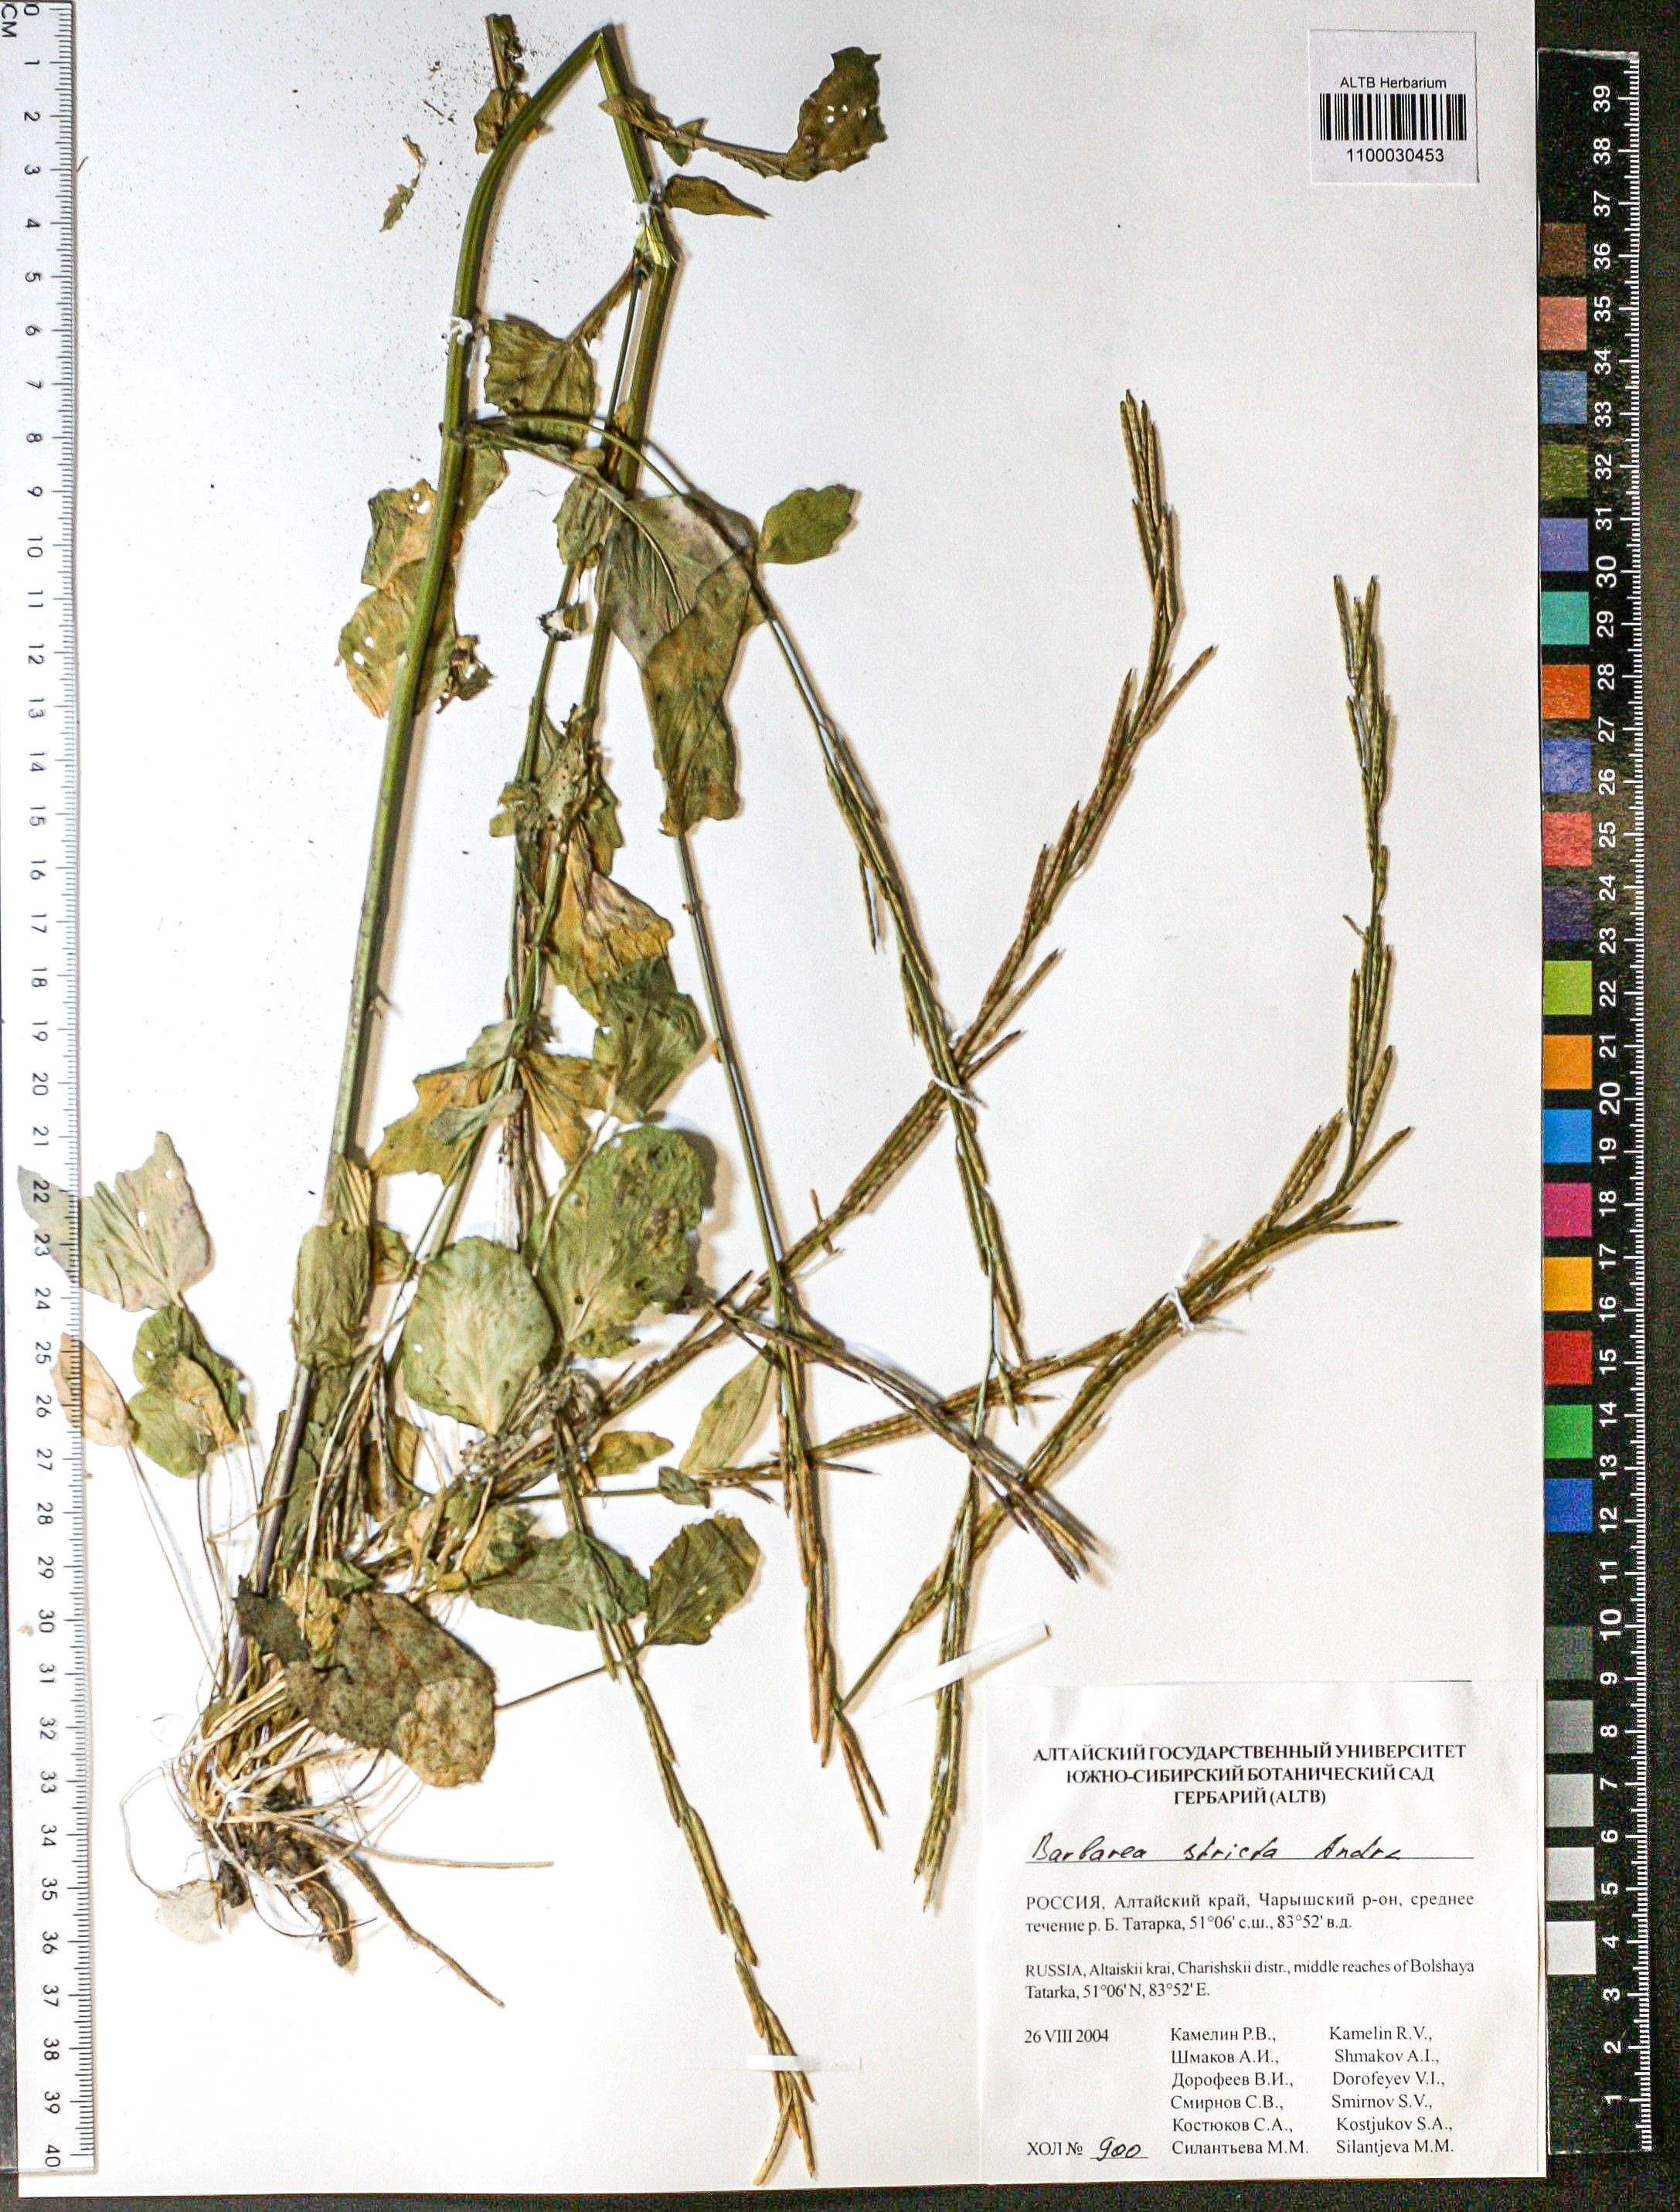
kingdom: Plantae
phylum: Tracheophyta
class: Magnoliopsida
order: Brassicales
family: Brassicaceae
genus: Barbarea
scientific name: Barbarea vulgaris
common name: Cressy-greens
